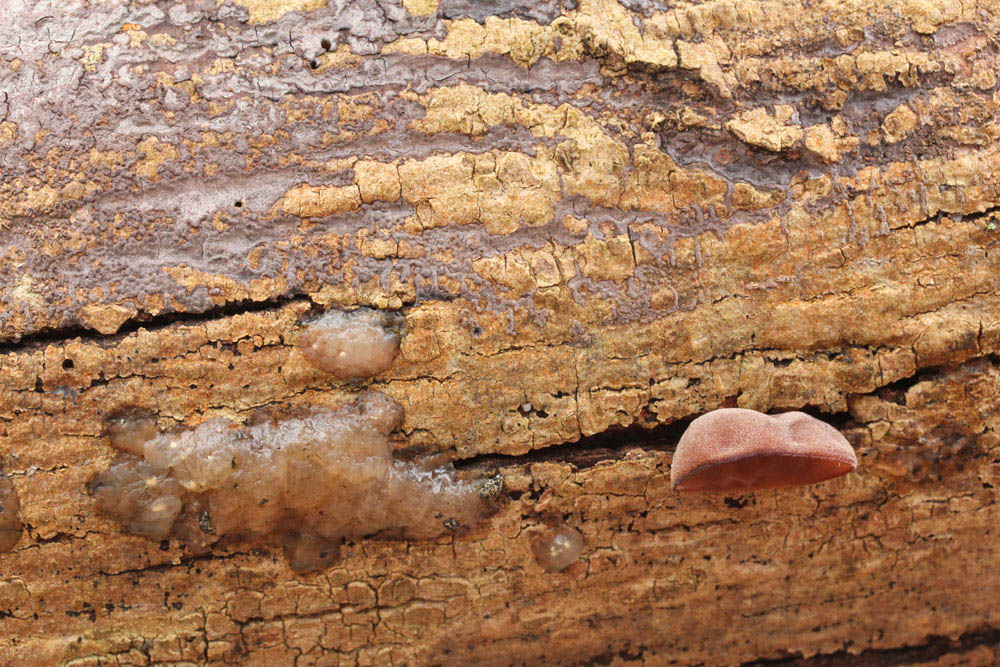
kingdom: Fungi
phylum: Basidiomycota
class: Agaricomycetes
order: Auriculariales
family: Auriculariaceae
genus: Auricularia
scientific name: Auricularia auricula-judae
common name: almindelig judasøre
